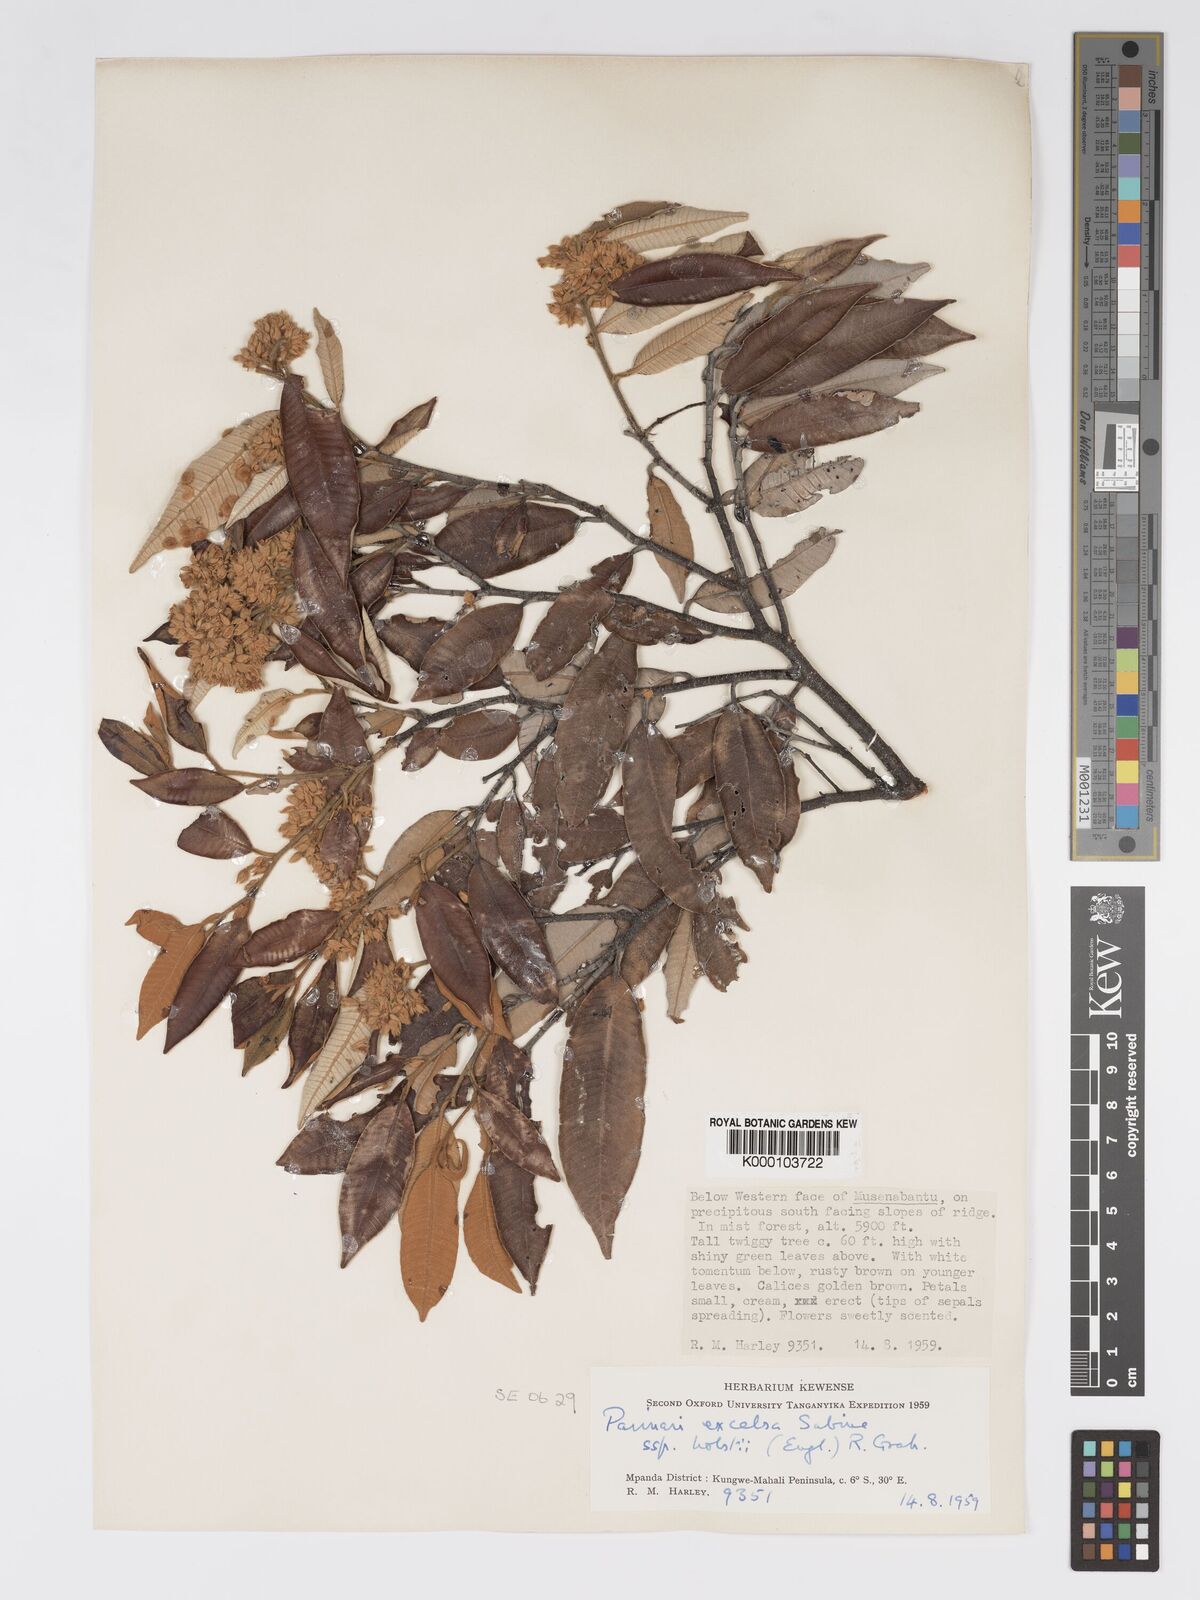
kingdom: Plantae
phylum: Tracheophyta
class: Magnoliopsida
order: Malpighiales
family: Chrysobalanaceae
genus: Parinari
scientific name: Parinari excelsa
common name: Guinea-plum
